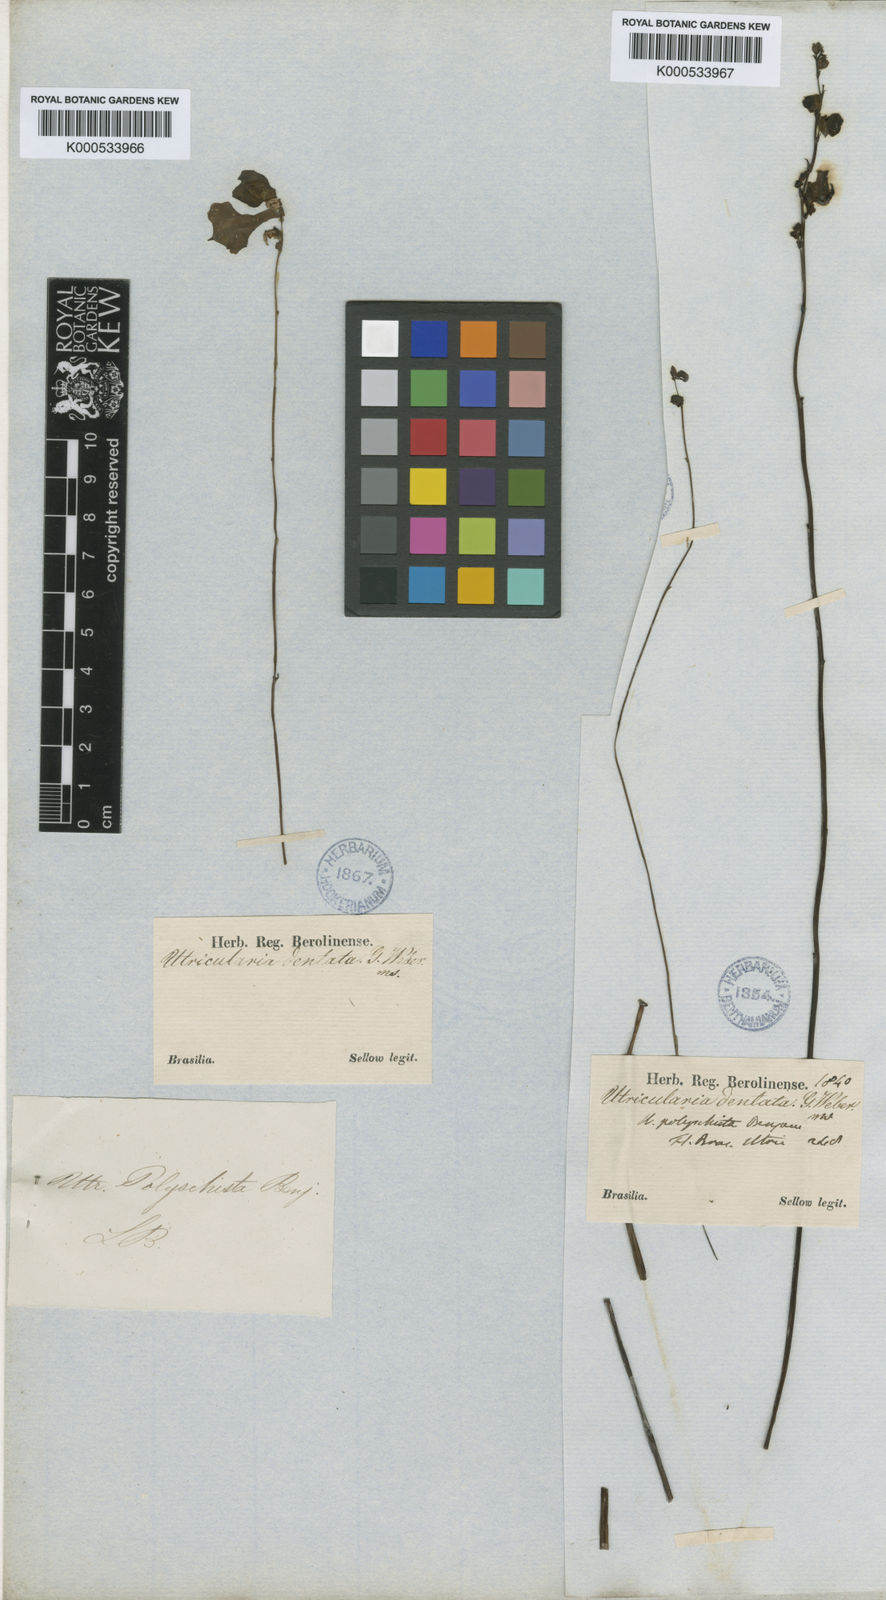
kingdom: Plantae
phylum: Tracheophyta
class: Magnoliopsida
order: Lamiales
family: Lentibulariaceae
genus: Utricularia
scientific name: Utricularia praelonga
